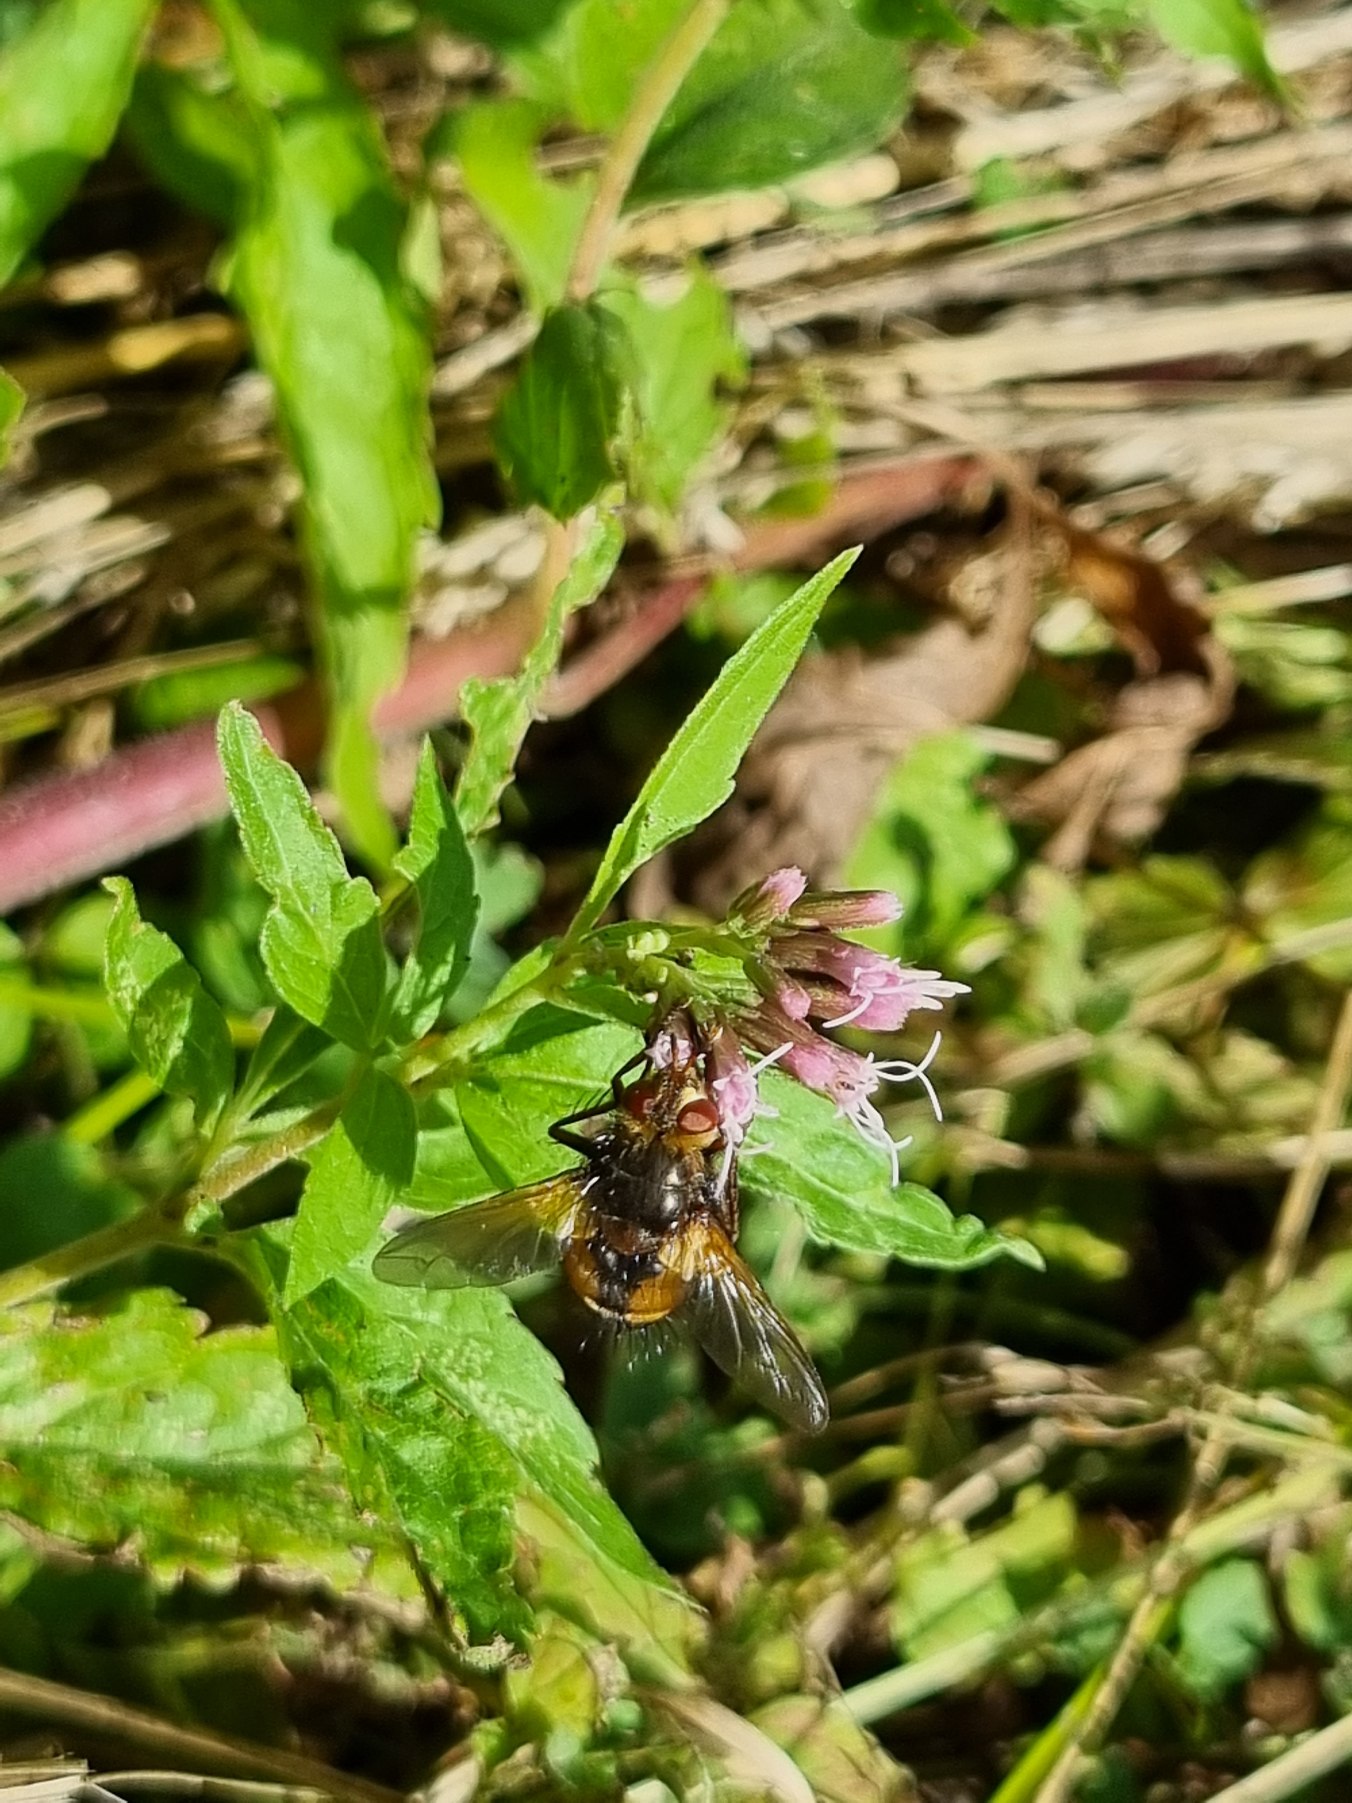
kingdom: Animalia
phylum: Arthropoda
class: Insecta
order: Diptera
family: Tachinidae
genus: Tachina
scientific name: Tachina fera
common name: Mellemfluen oskar
